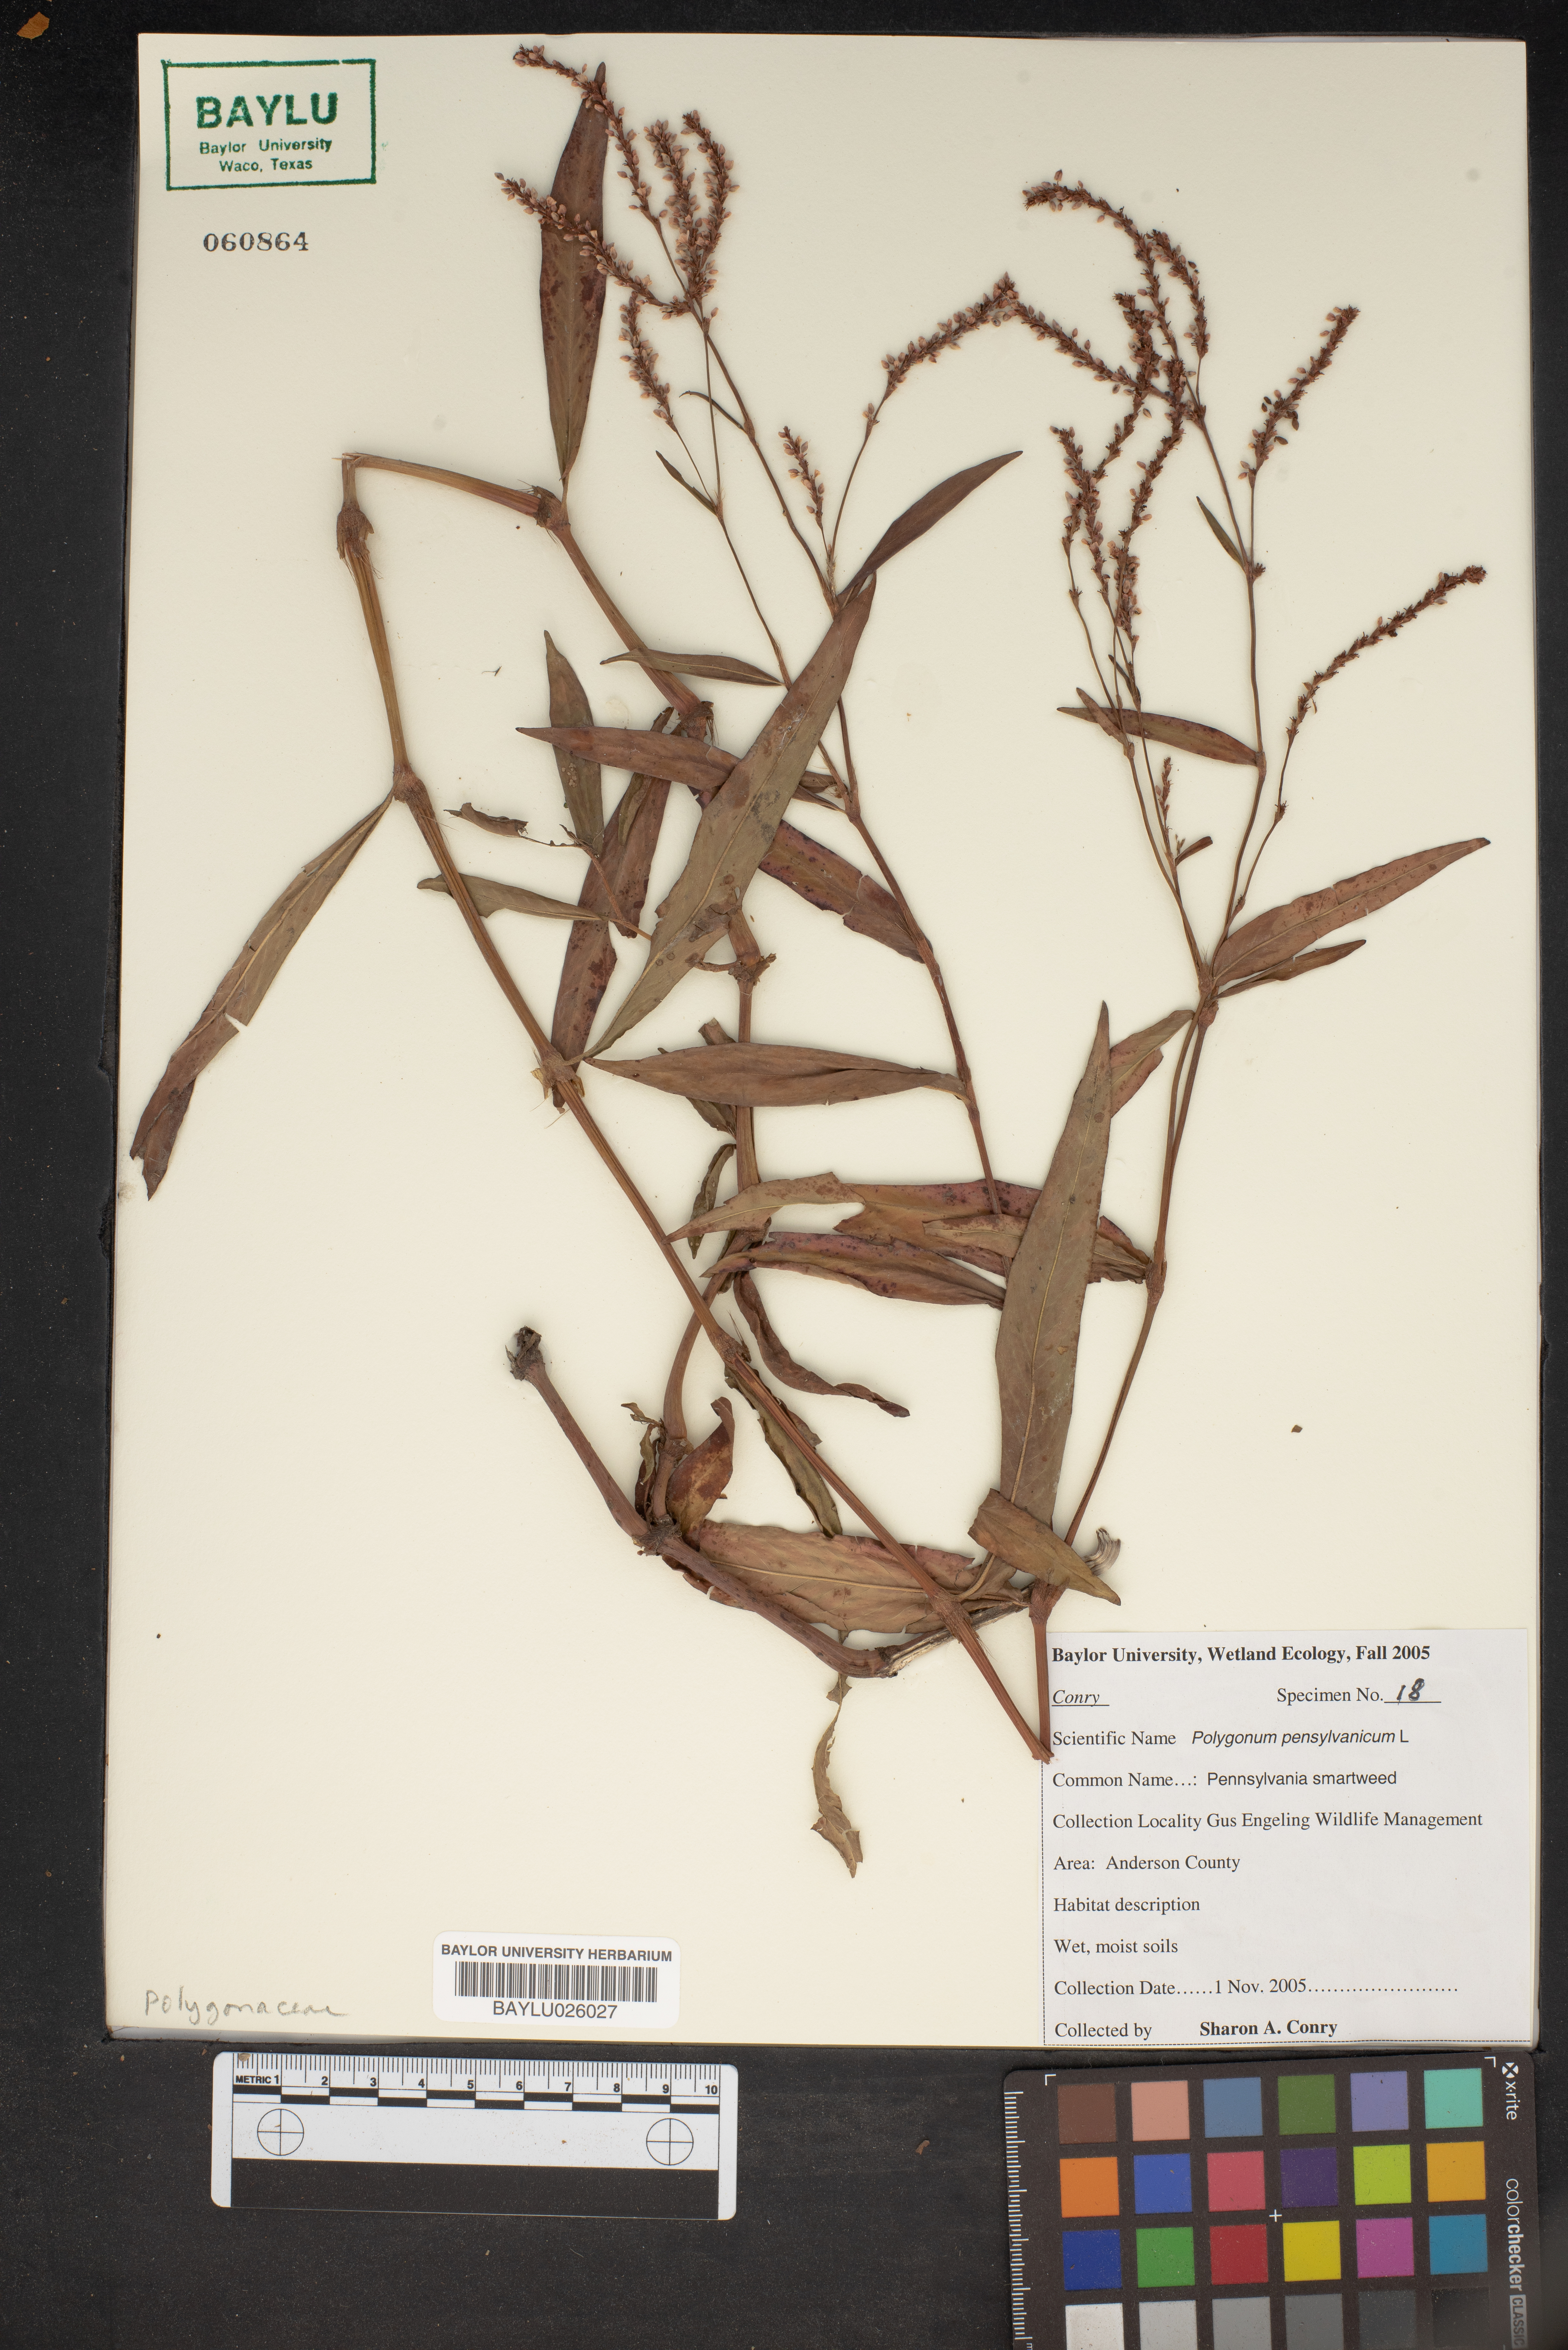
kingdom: Plantae
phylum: Tracheophyta
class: Magnoliopsida
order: Caryophyllales
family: Polygonaceae
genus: Persicaria
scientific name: Persicaria pensylvanica
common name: Pinkweed
